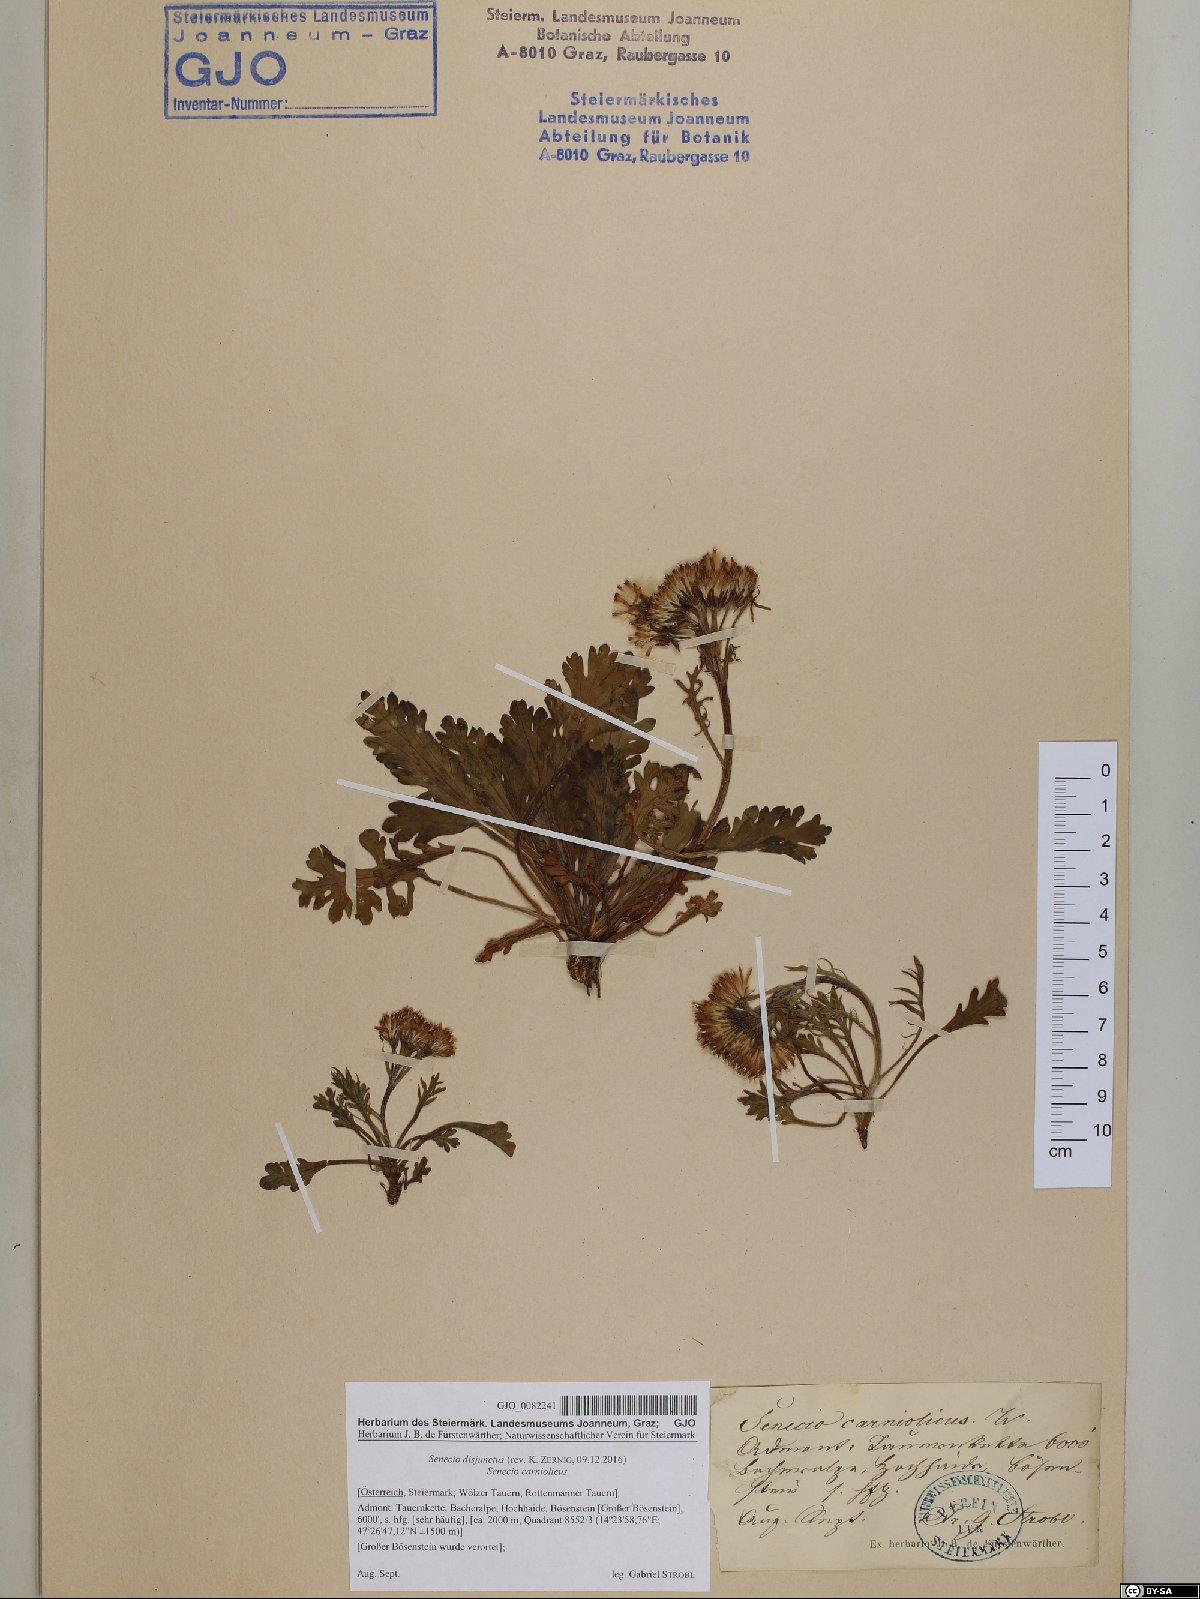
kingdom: Plantae
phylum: Tracheophyta
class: Magnoliopsida
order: Asterales
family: Asteraceae
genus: Jacobaea
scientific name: Jacobaea disjuncta
